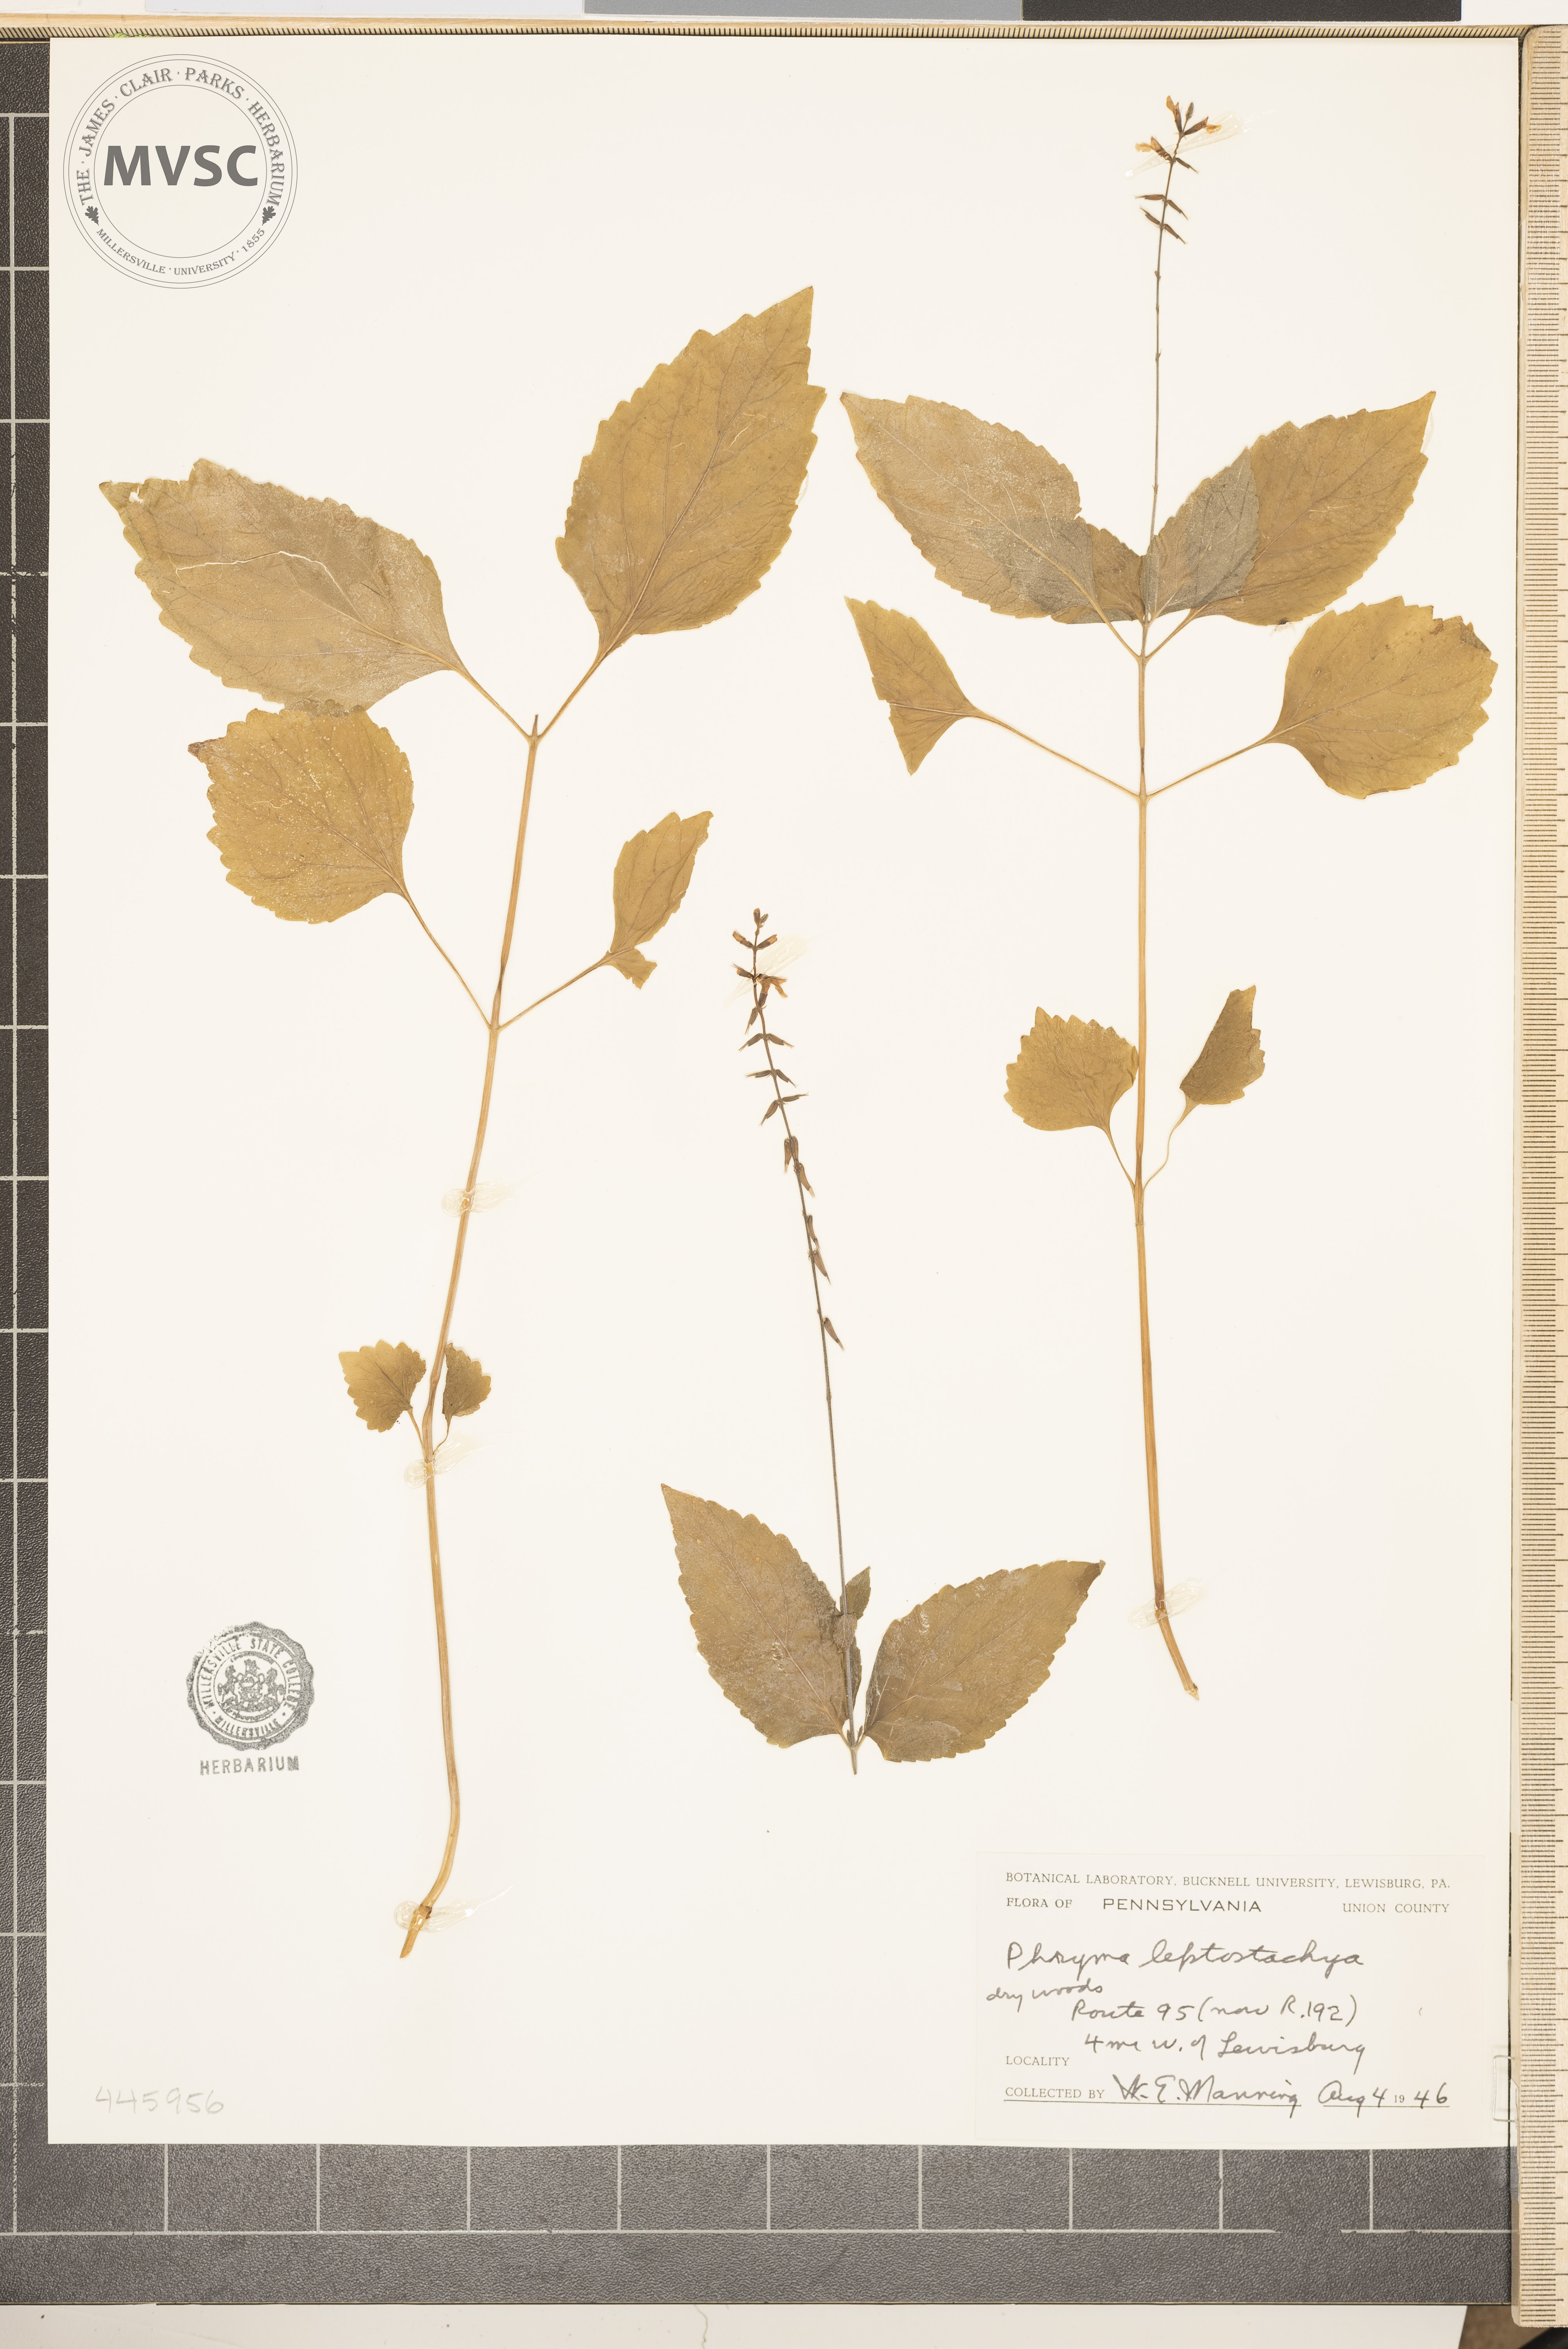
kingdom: Plantae
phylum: Tracheophyta
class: Magnoliopsida
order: Lamiales
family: Phrymaceae
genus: Phryma
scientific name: Phryma leptostachya
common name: American lopseed
